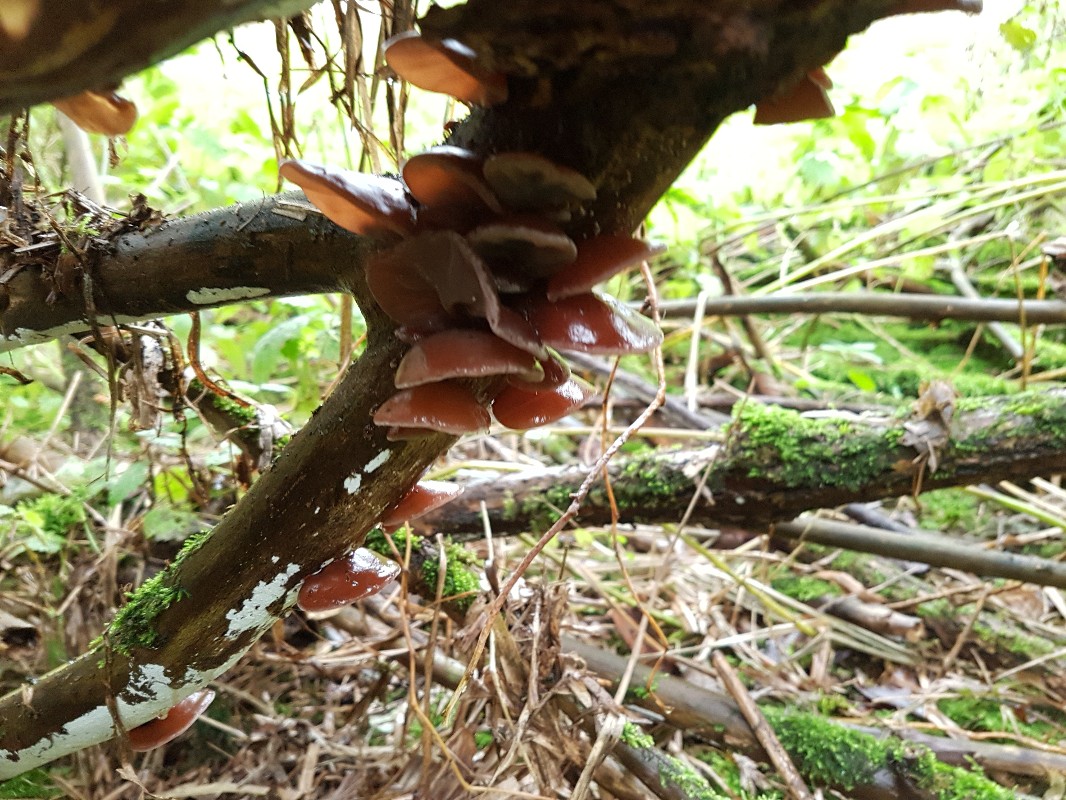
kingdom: Fungi
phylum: Basidiomycota
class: Agaricomycetes
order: Auriculariales
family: Auriculariaceae
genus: Auricularia
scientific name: Auricularia auricula-judae
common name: almindelig judasøre
